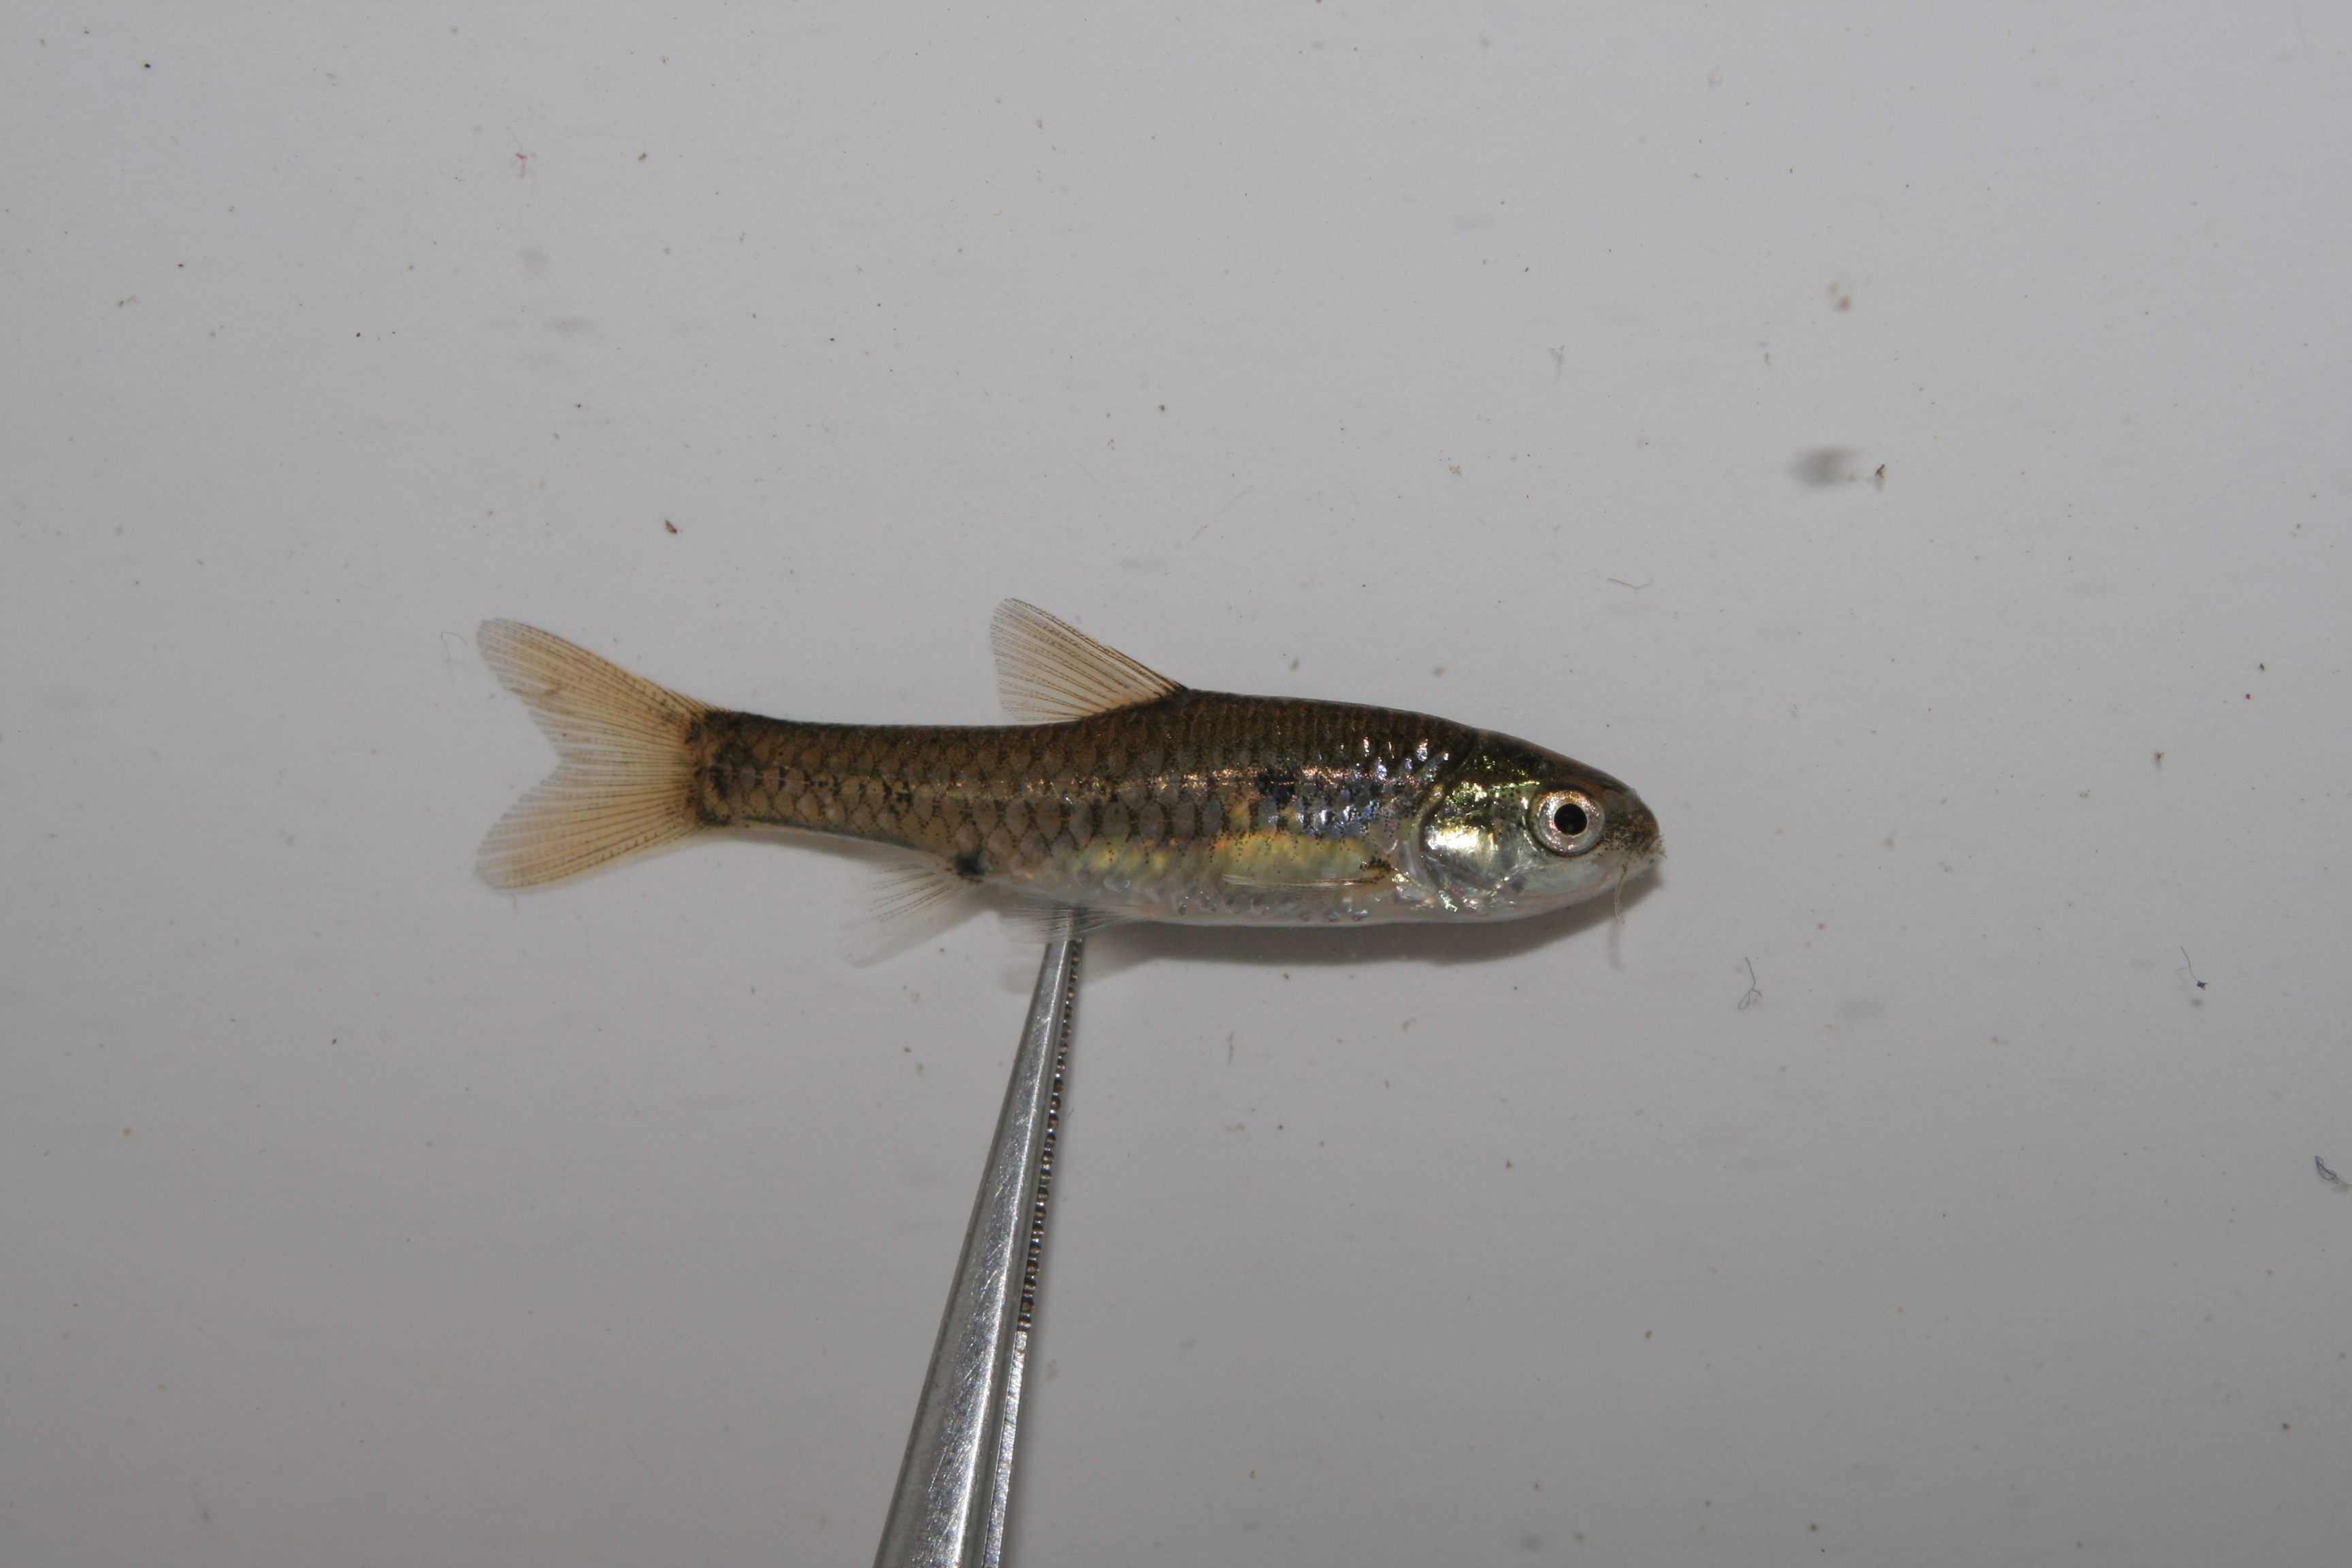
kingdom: Animalia
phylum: Chordata
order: Cypriniformes
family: Cyprinidae
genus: Enteromius
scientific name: Enteromius pallidus
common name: Goldie barb
